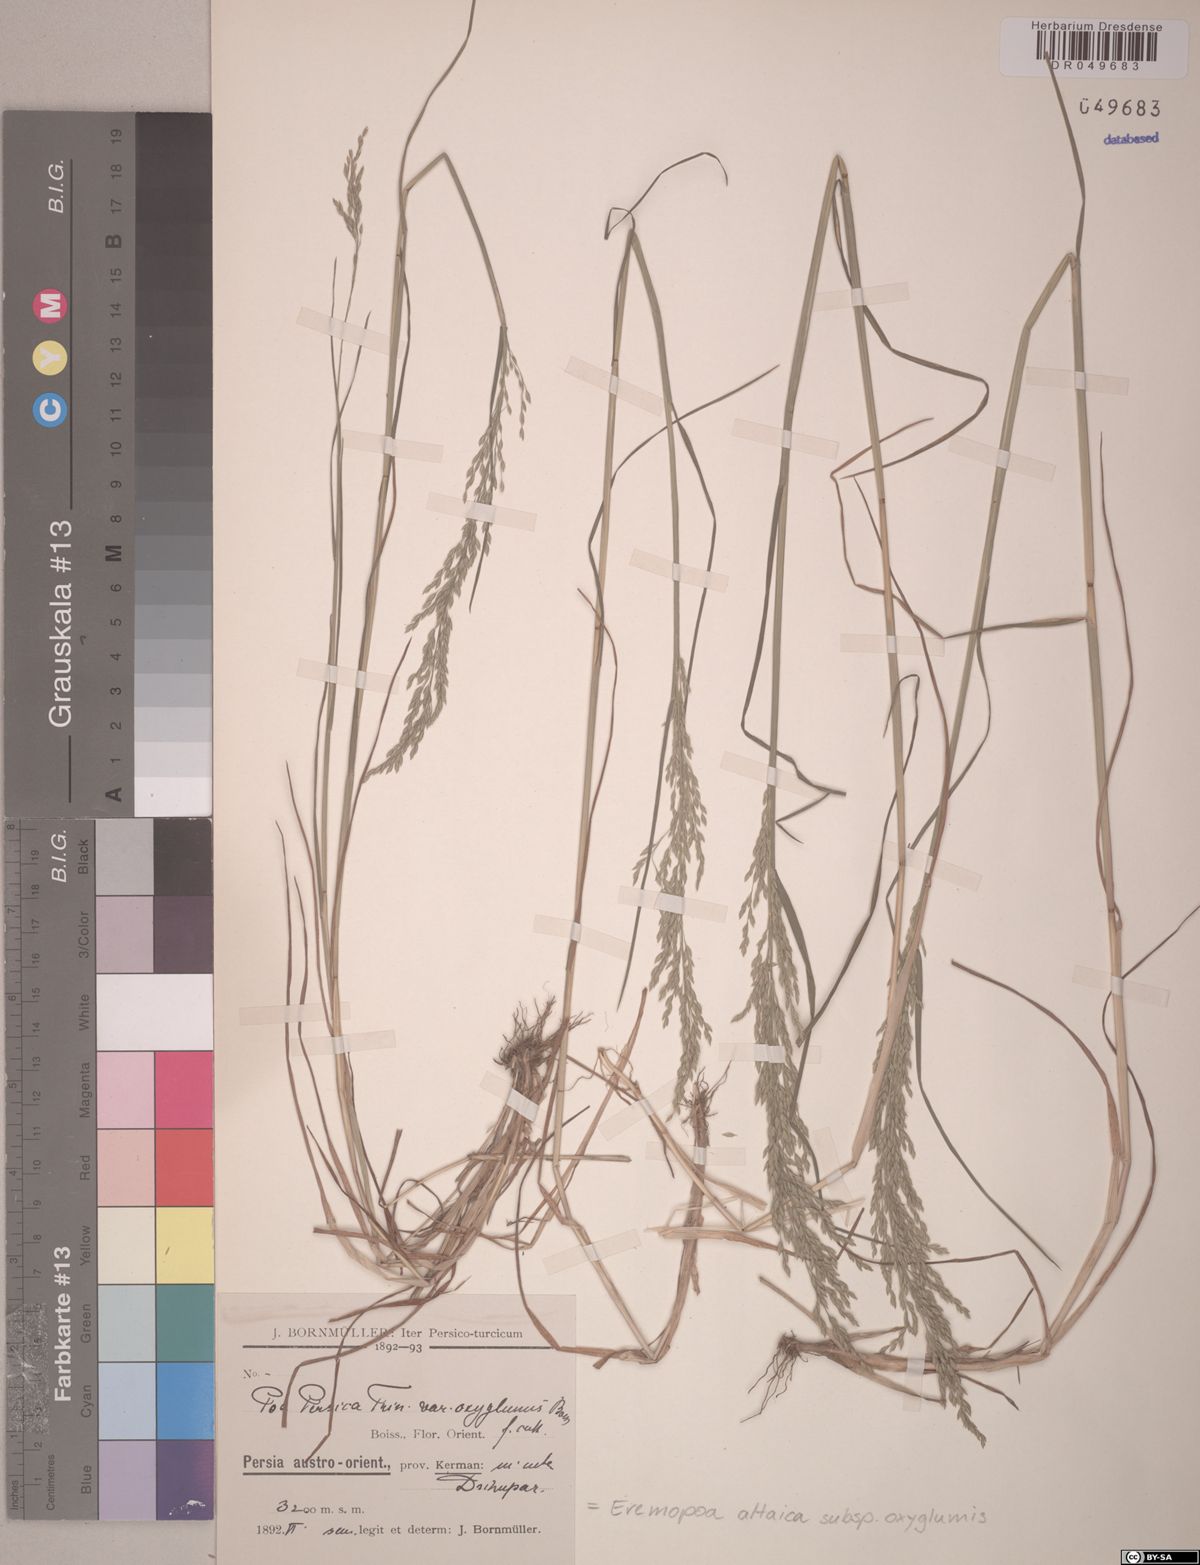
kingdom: Plantae
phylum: Tracheophyta
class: Liliopsida
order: Poales
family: Poaceae
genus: Poa
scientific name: Poa diaphora
